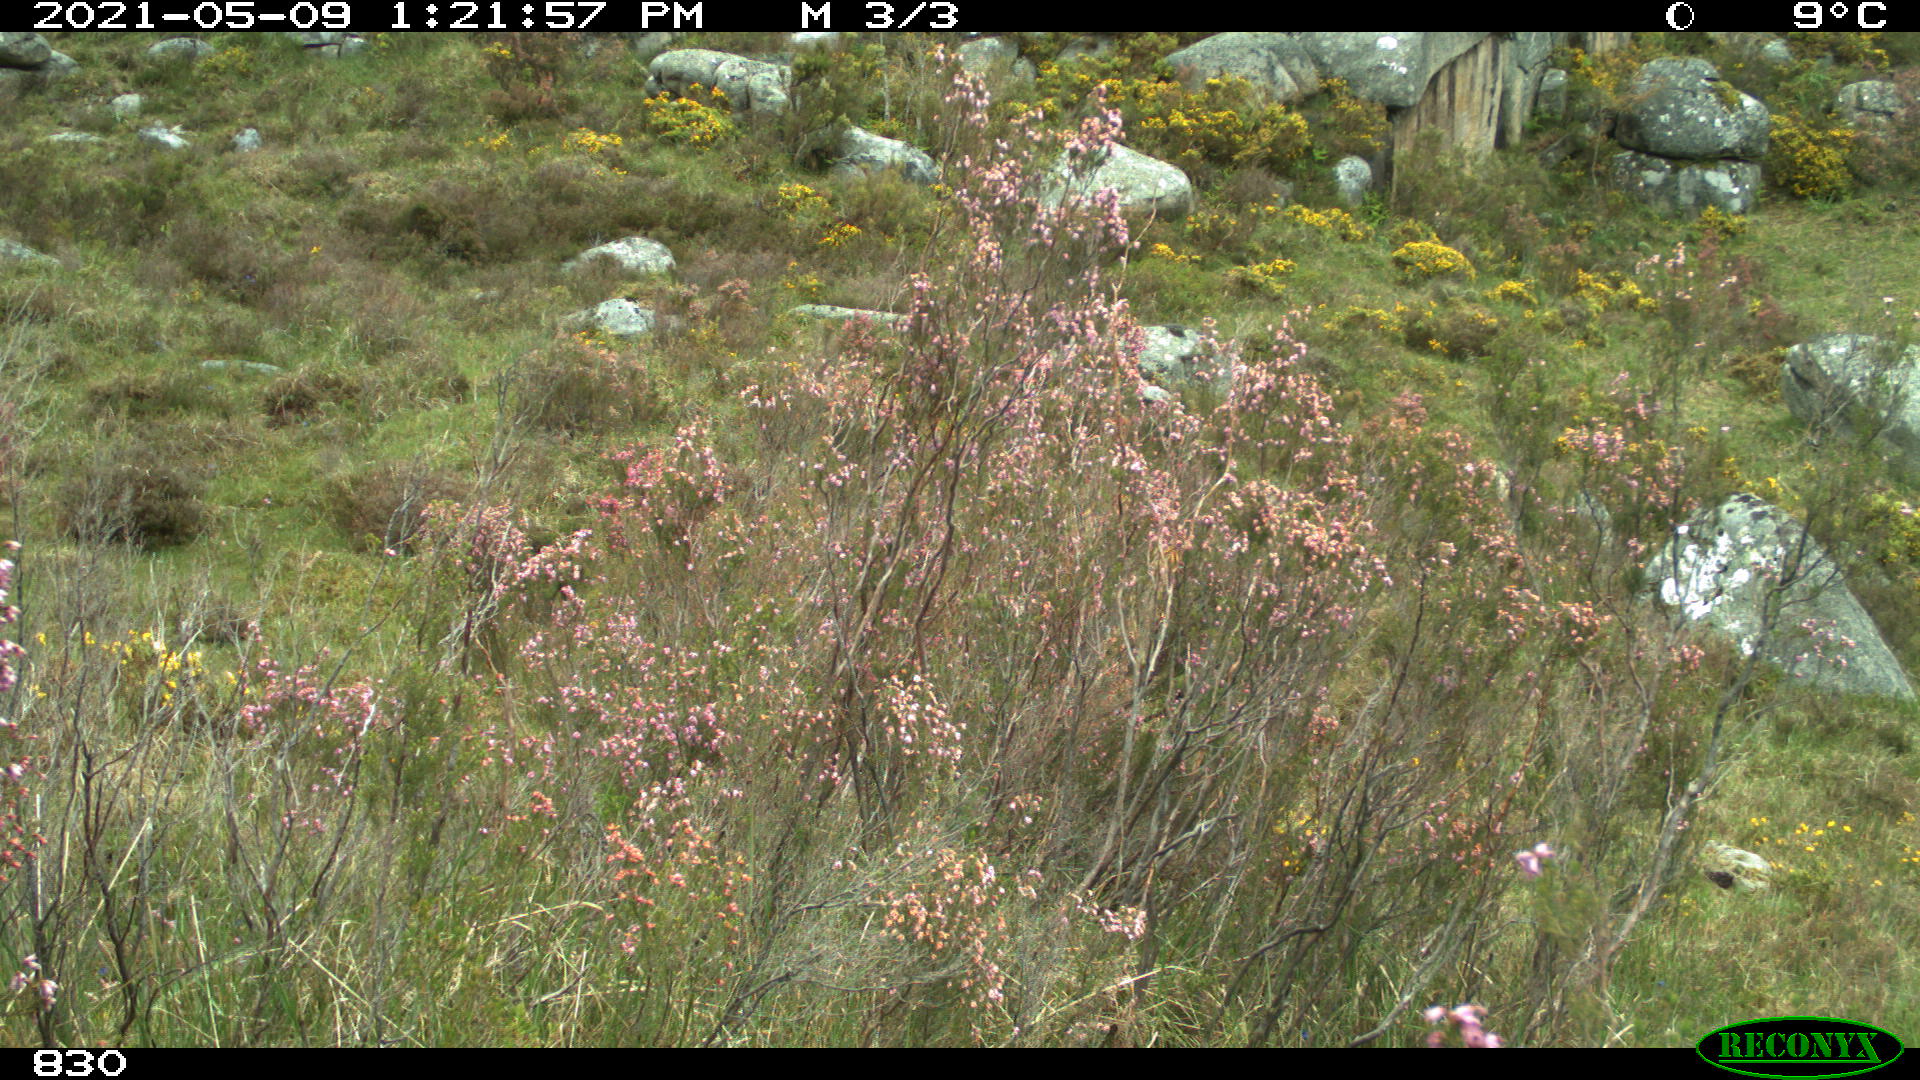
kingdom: Animalia
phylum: Chordata
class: Mammalia
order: Artiodactyla
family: Bovidae
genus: Bos
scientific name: Bos taurus
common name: Domesticated cattle
